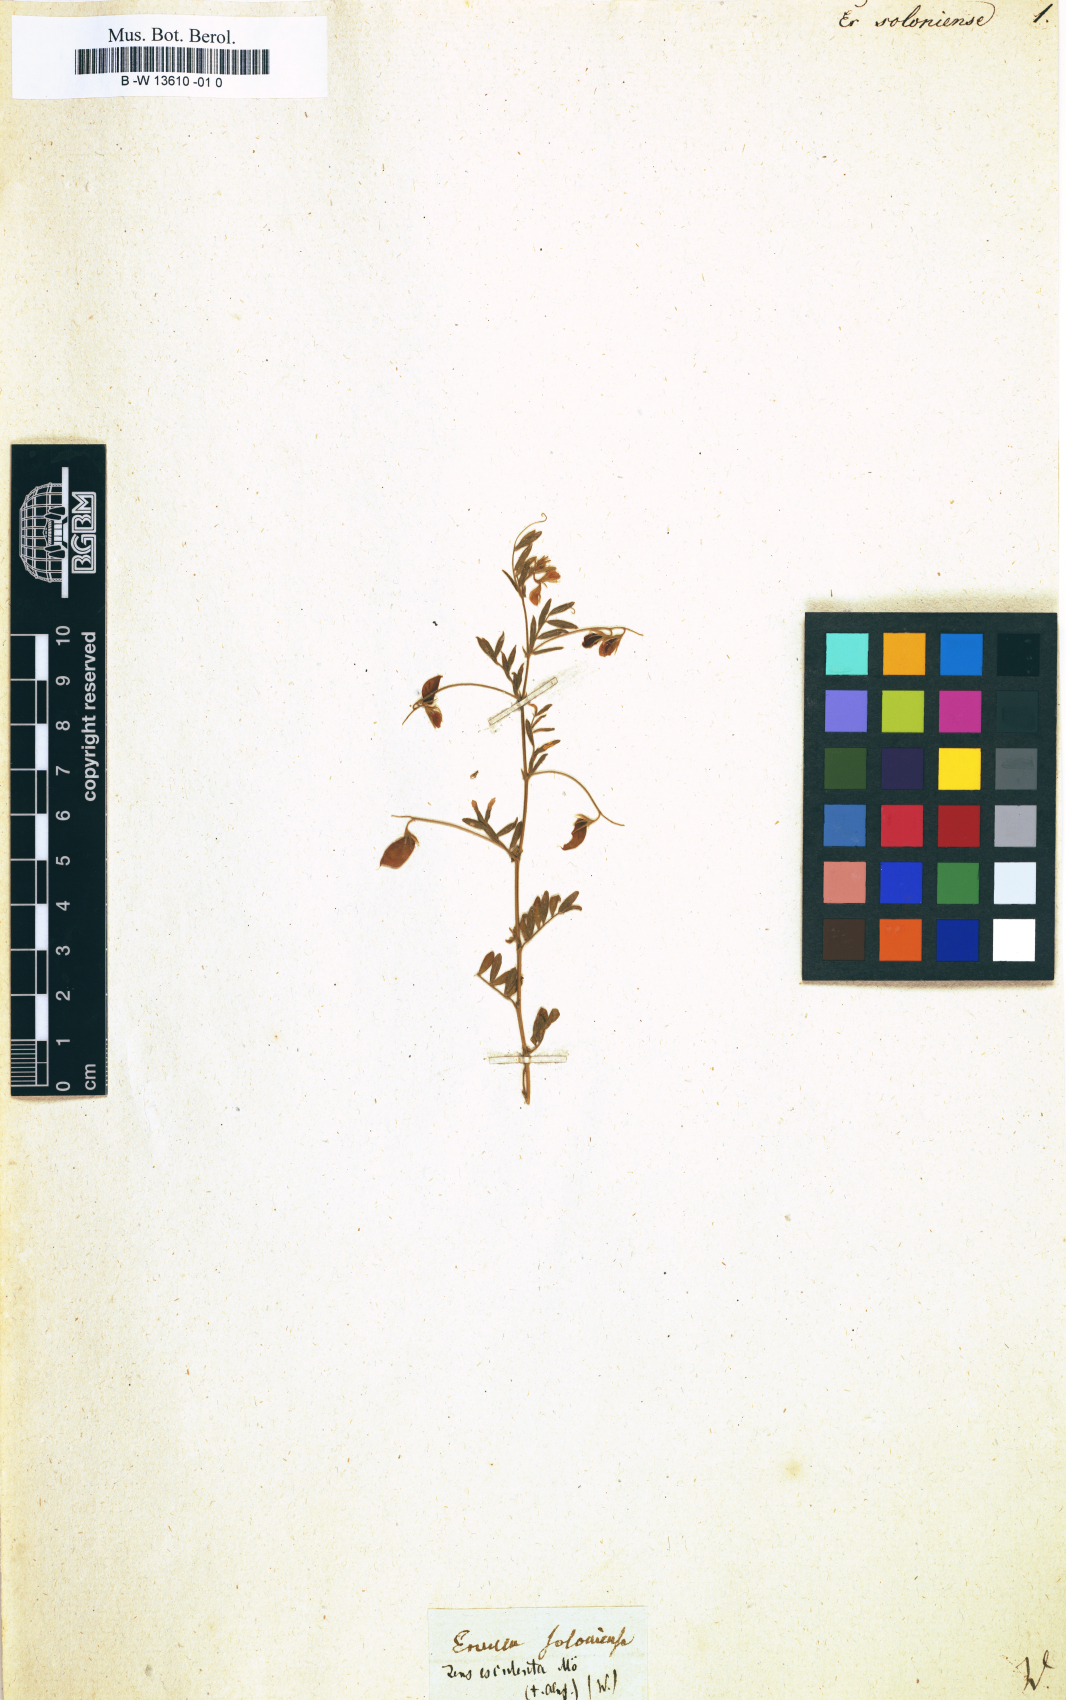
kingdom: Plantae
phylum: Tracheophyta
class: Magnoliopsida
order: Fabales
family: Fabaceae
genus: Vicia
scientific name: Vicia lathyroides
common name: Spring vetch
